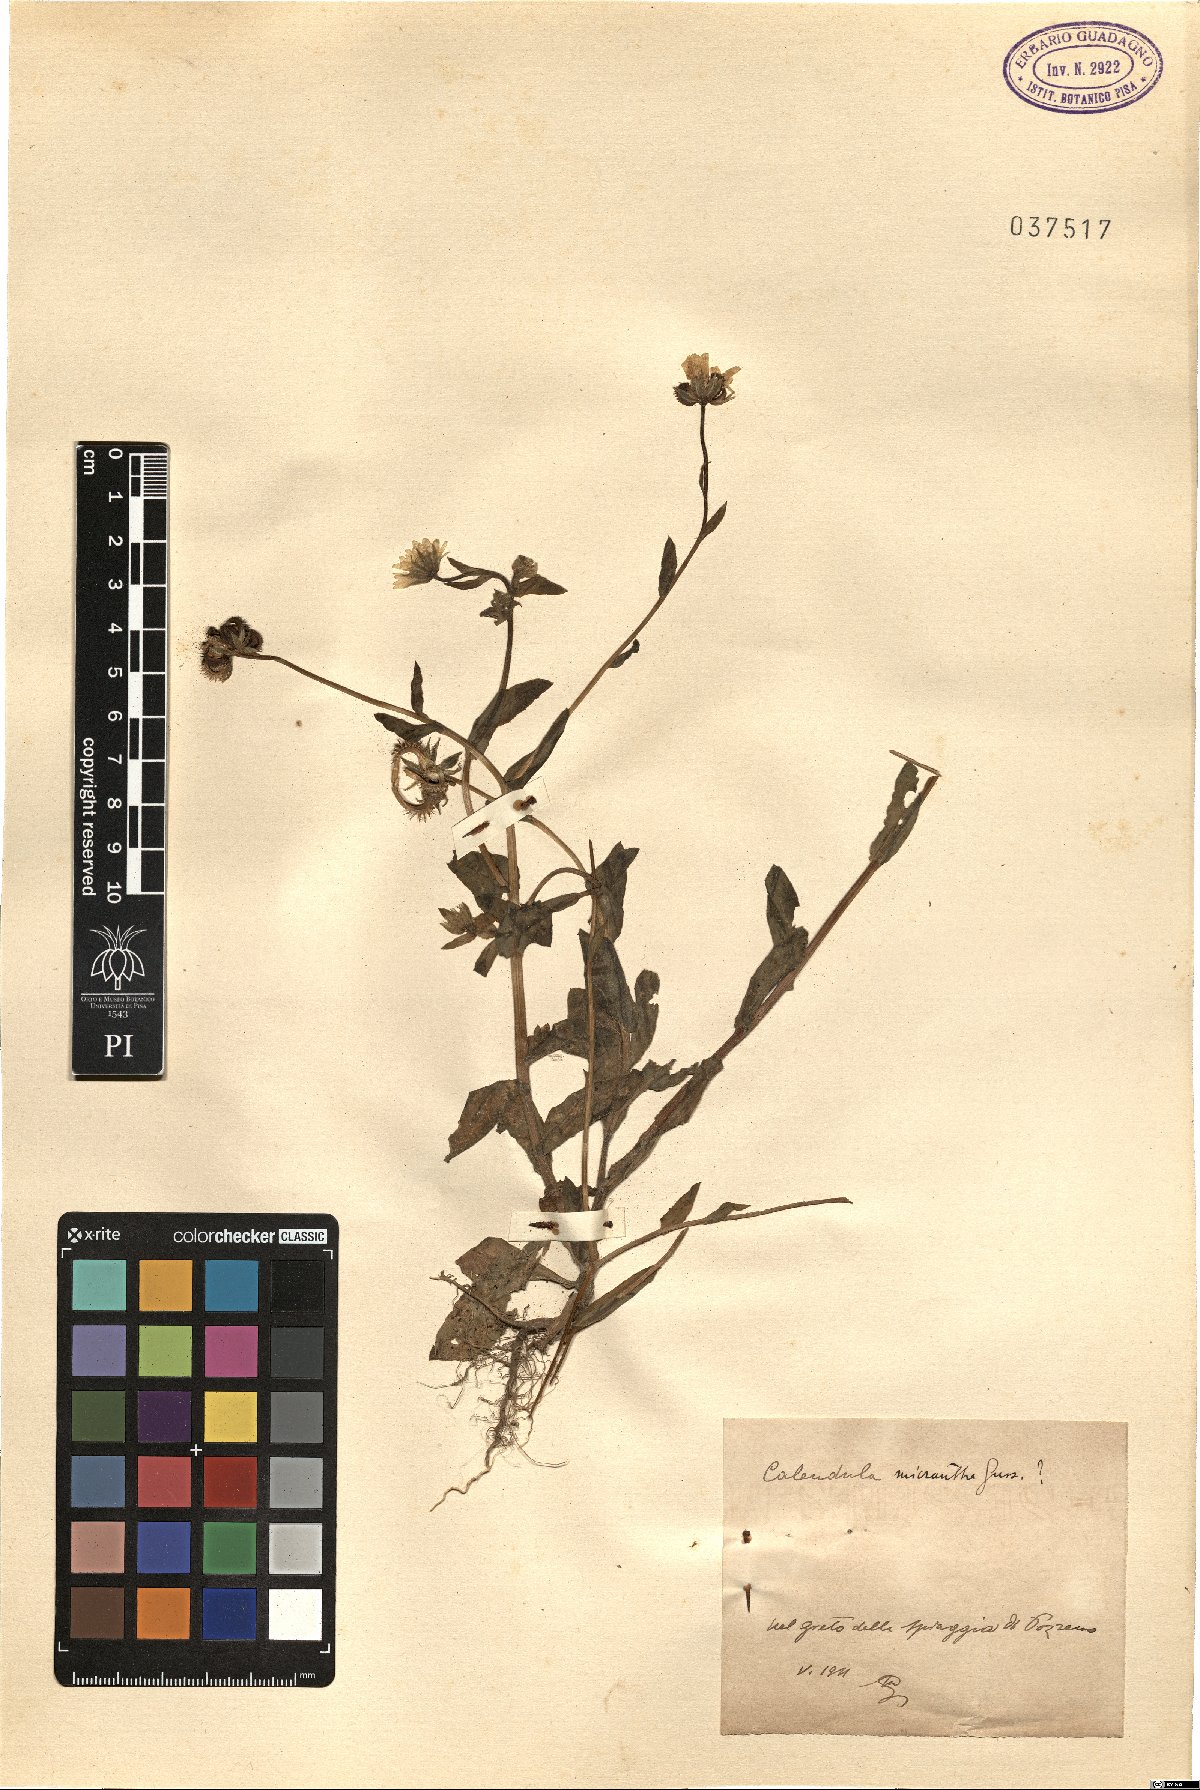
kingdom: Plantae
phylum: Tracheophyta
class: Magnoliopsida
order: Asterales
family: Asteraceae
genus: Calendula
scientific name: Calendula arvensis
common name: Field marigold
